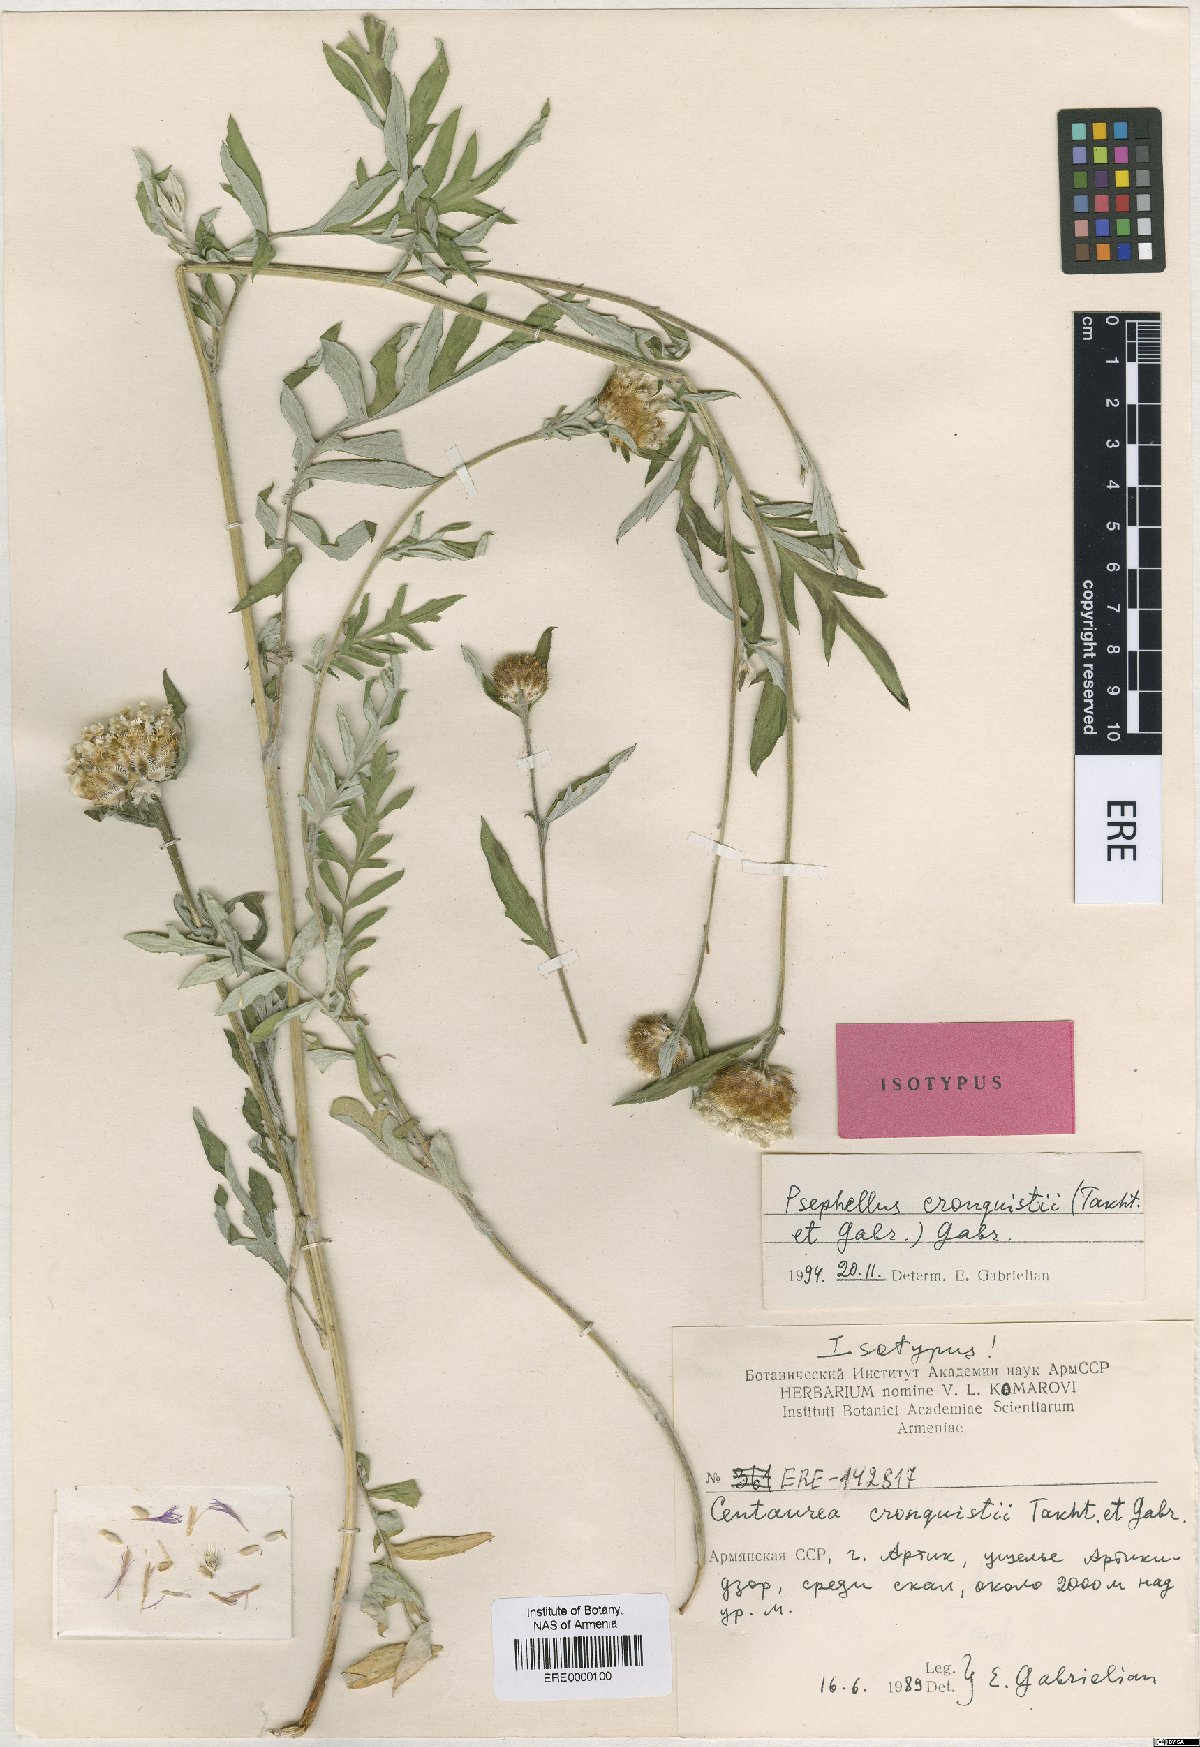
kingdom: Plantae
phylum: Tracheophyta
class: Magnoliopsida
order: Asterales
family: Asteraceae
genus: Psephellus
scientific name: Psephellus cronquistii
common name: Cronquists's cornflower
